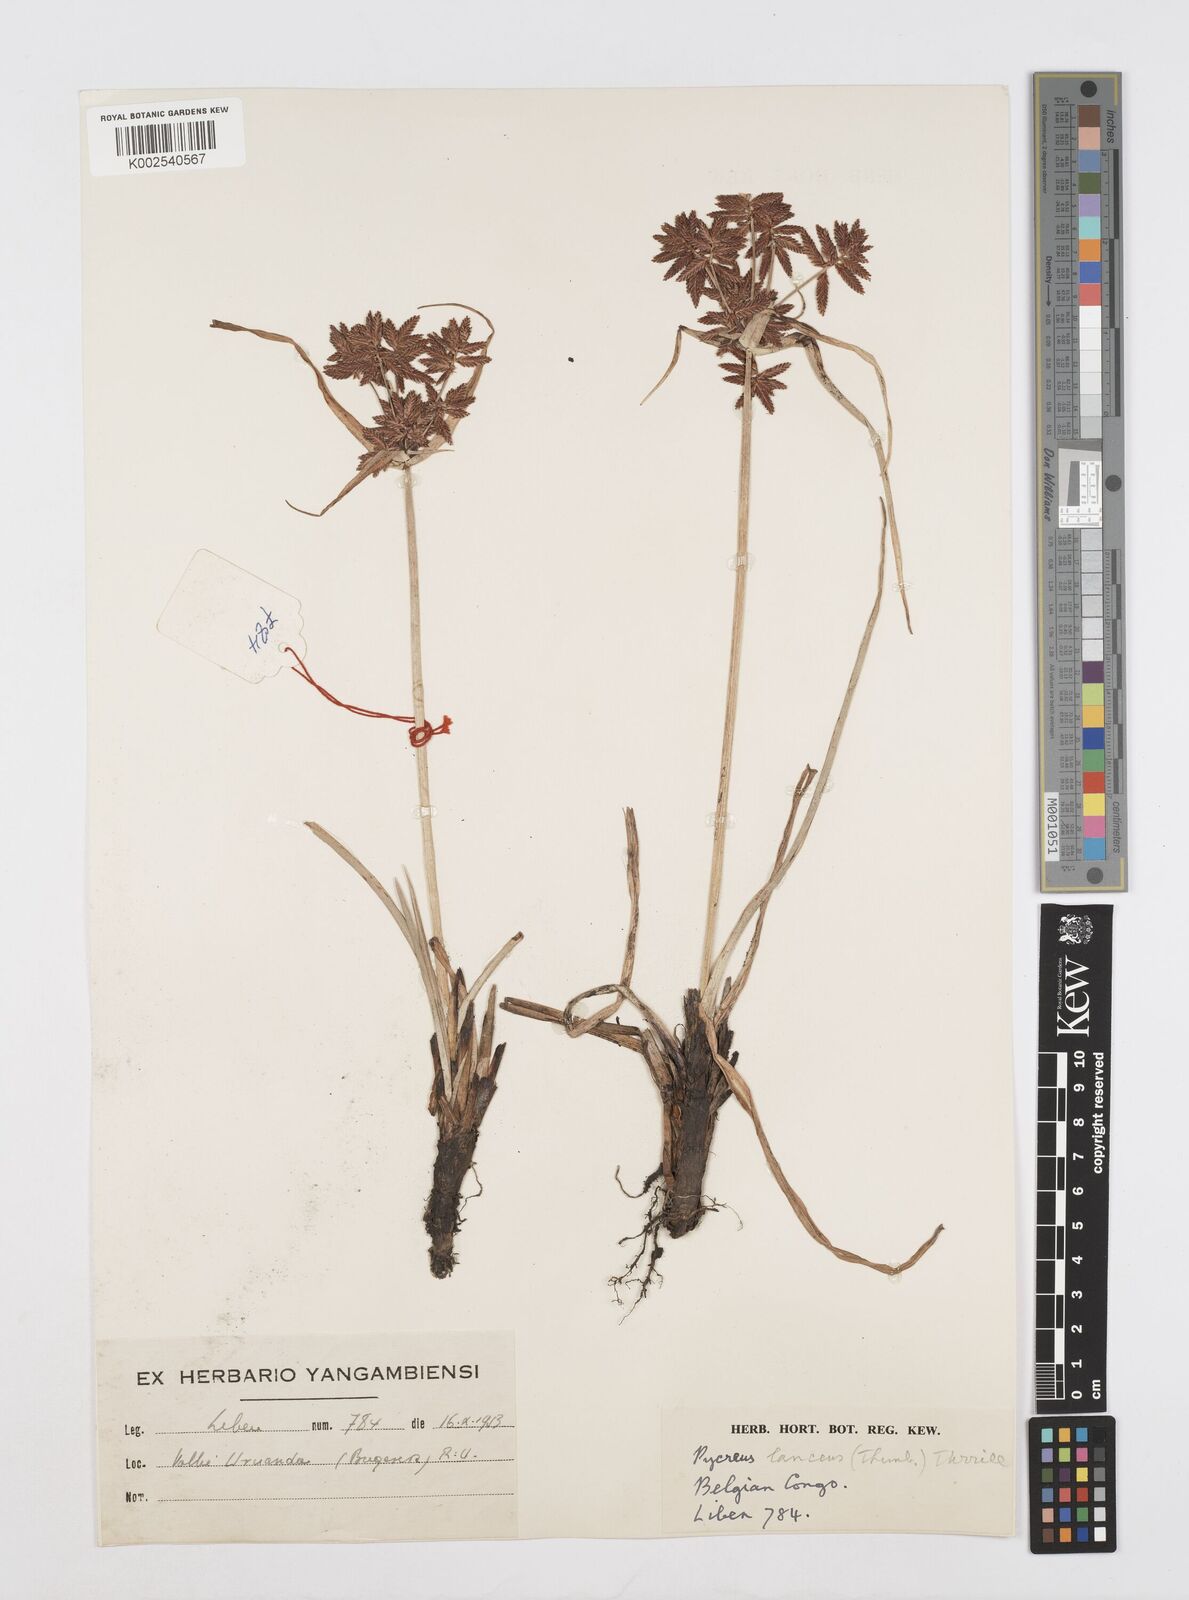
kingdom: Plantae
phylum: Tracheophyta
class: Liliopsida
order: Poales
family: Cyperaceae
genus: Cyperus
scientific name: Cyperus nitidus
